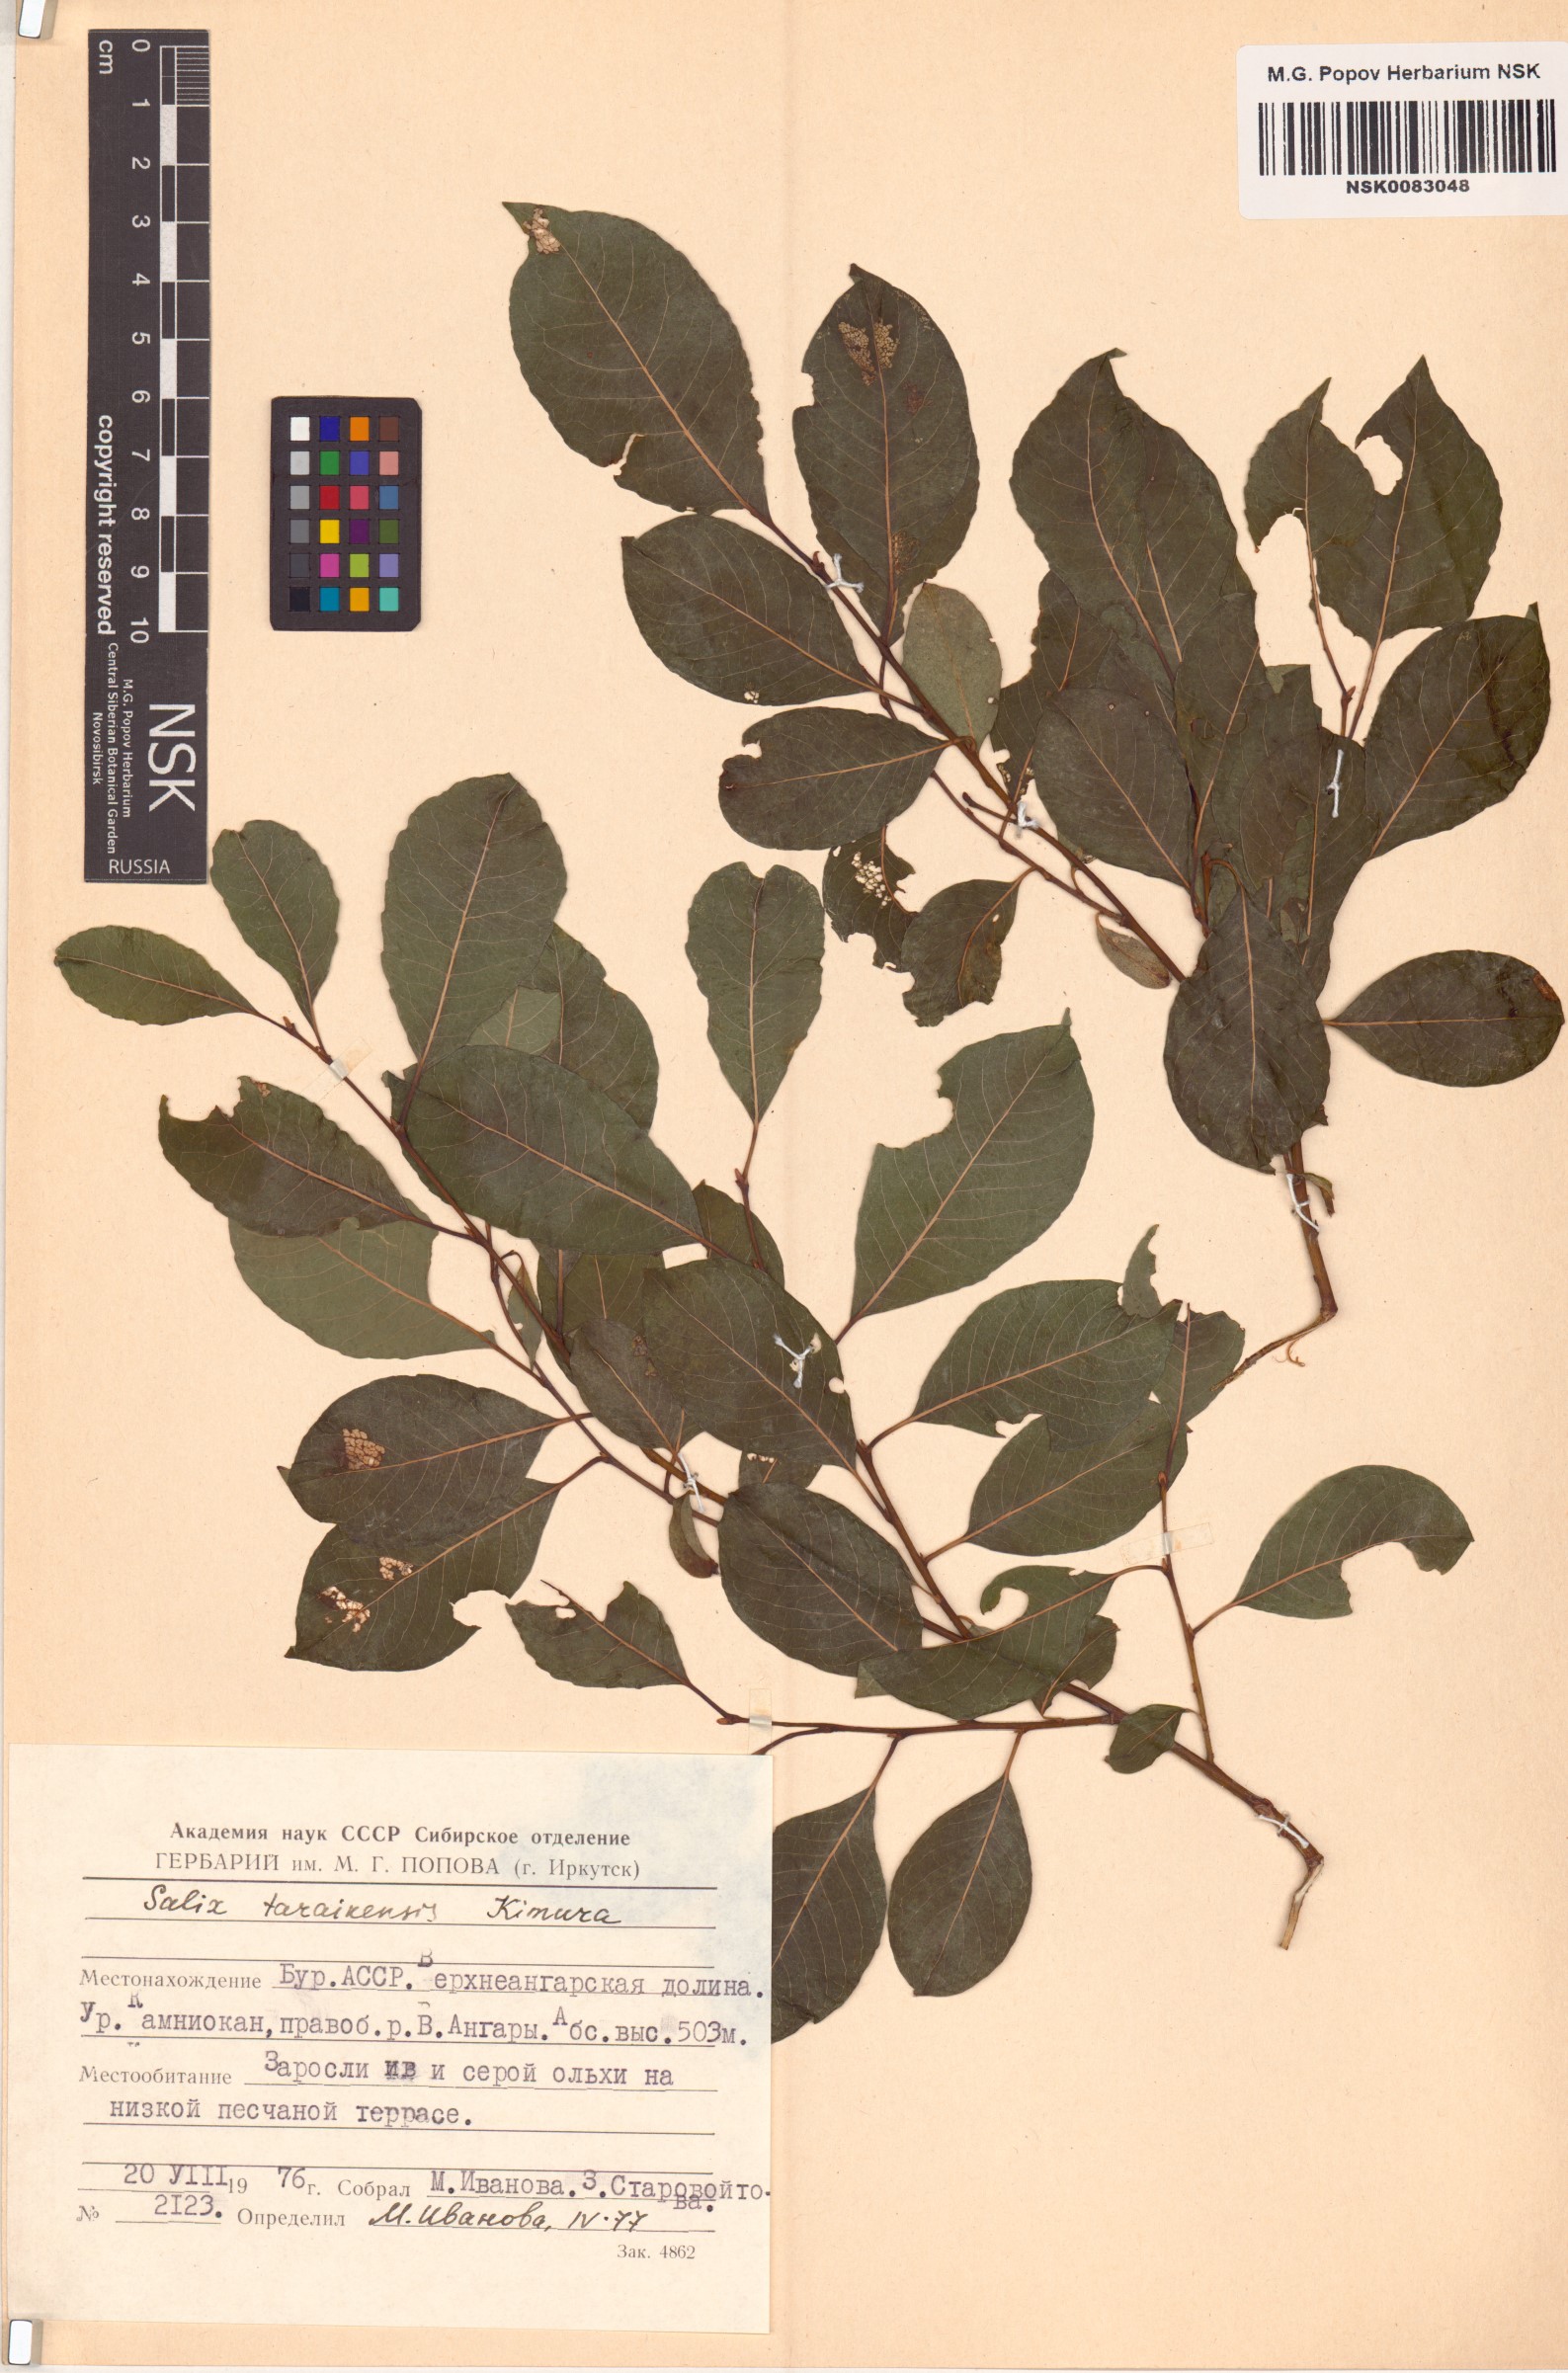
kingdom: Plantae
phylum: Tracheophyta
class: Magnoliopsida
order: Malpighiales
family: Salicaceae
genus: Salix
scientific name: Salix taraikensis
